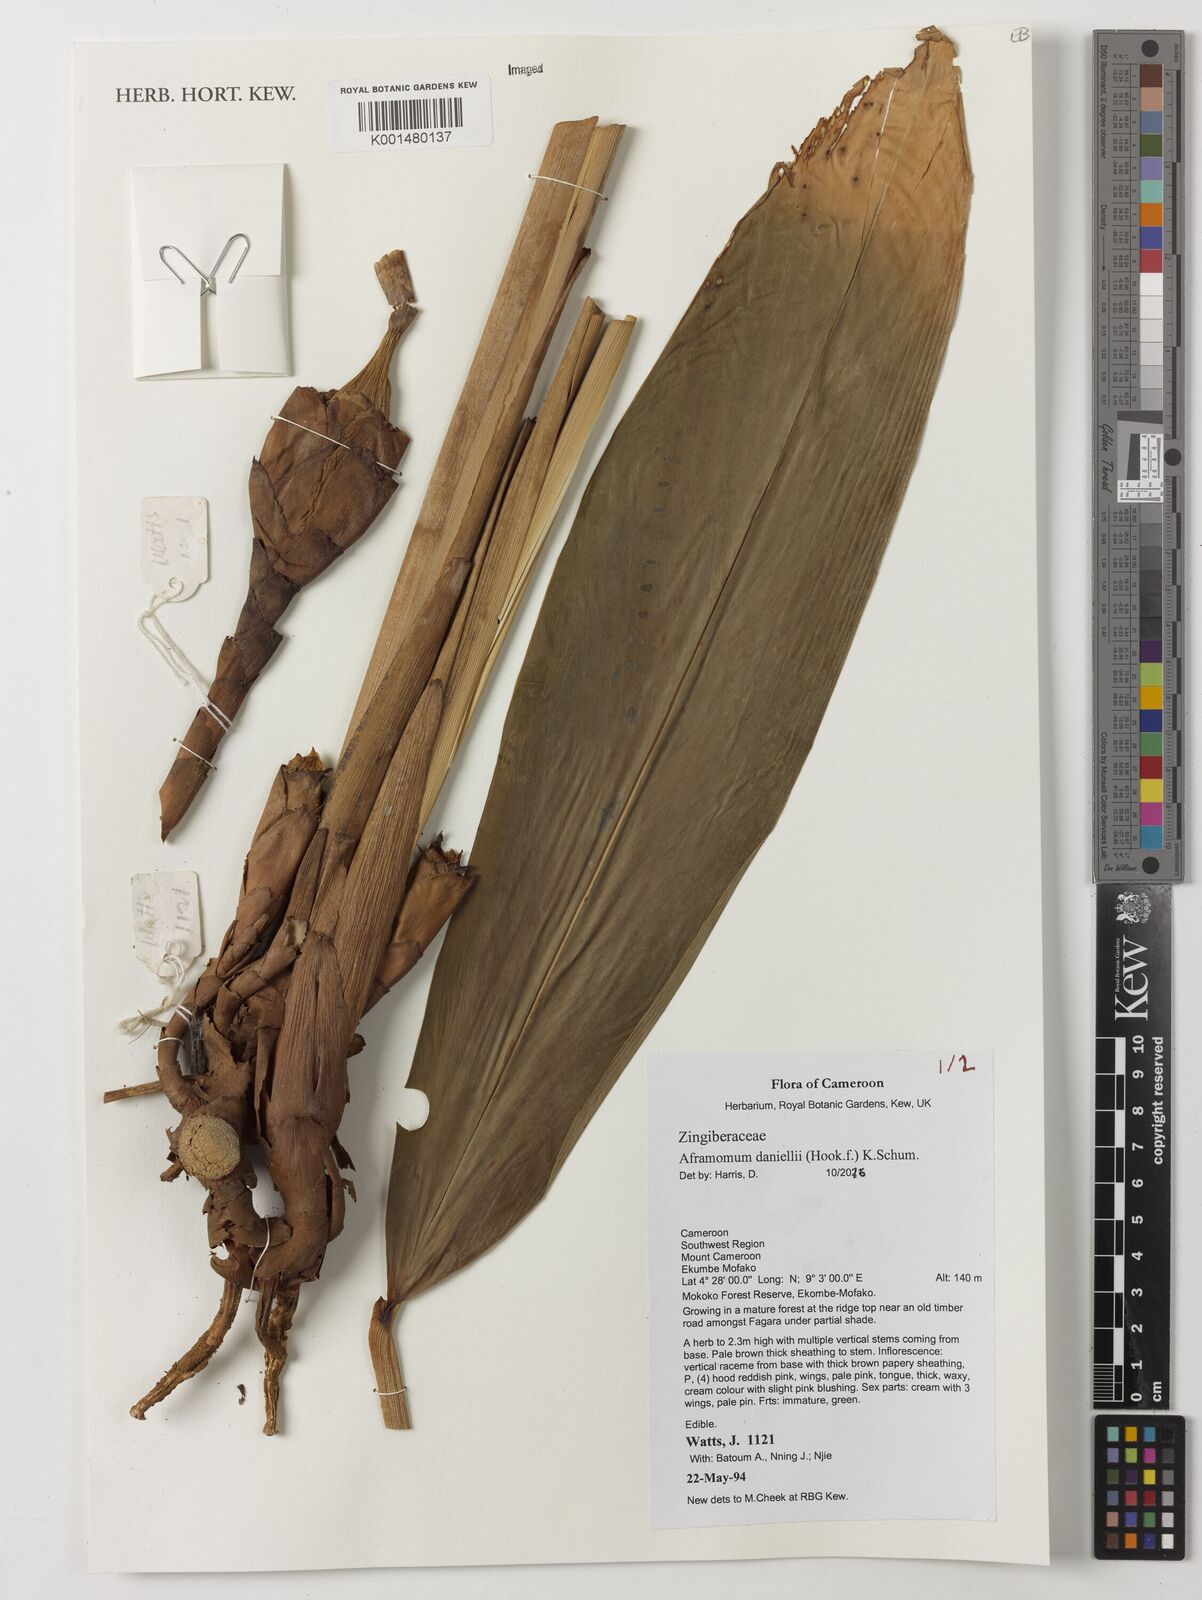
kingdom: Plantae
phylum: Tracheophyta
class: Liliopsida
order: Zingiberales
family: Zingiberaceae
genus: Aframomum
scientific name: Aframomum daniellii
